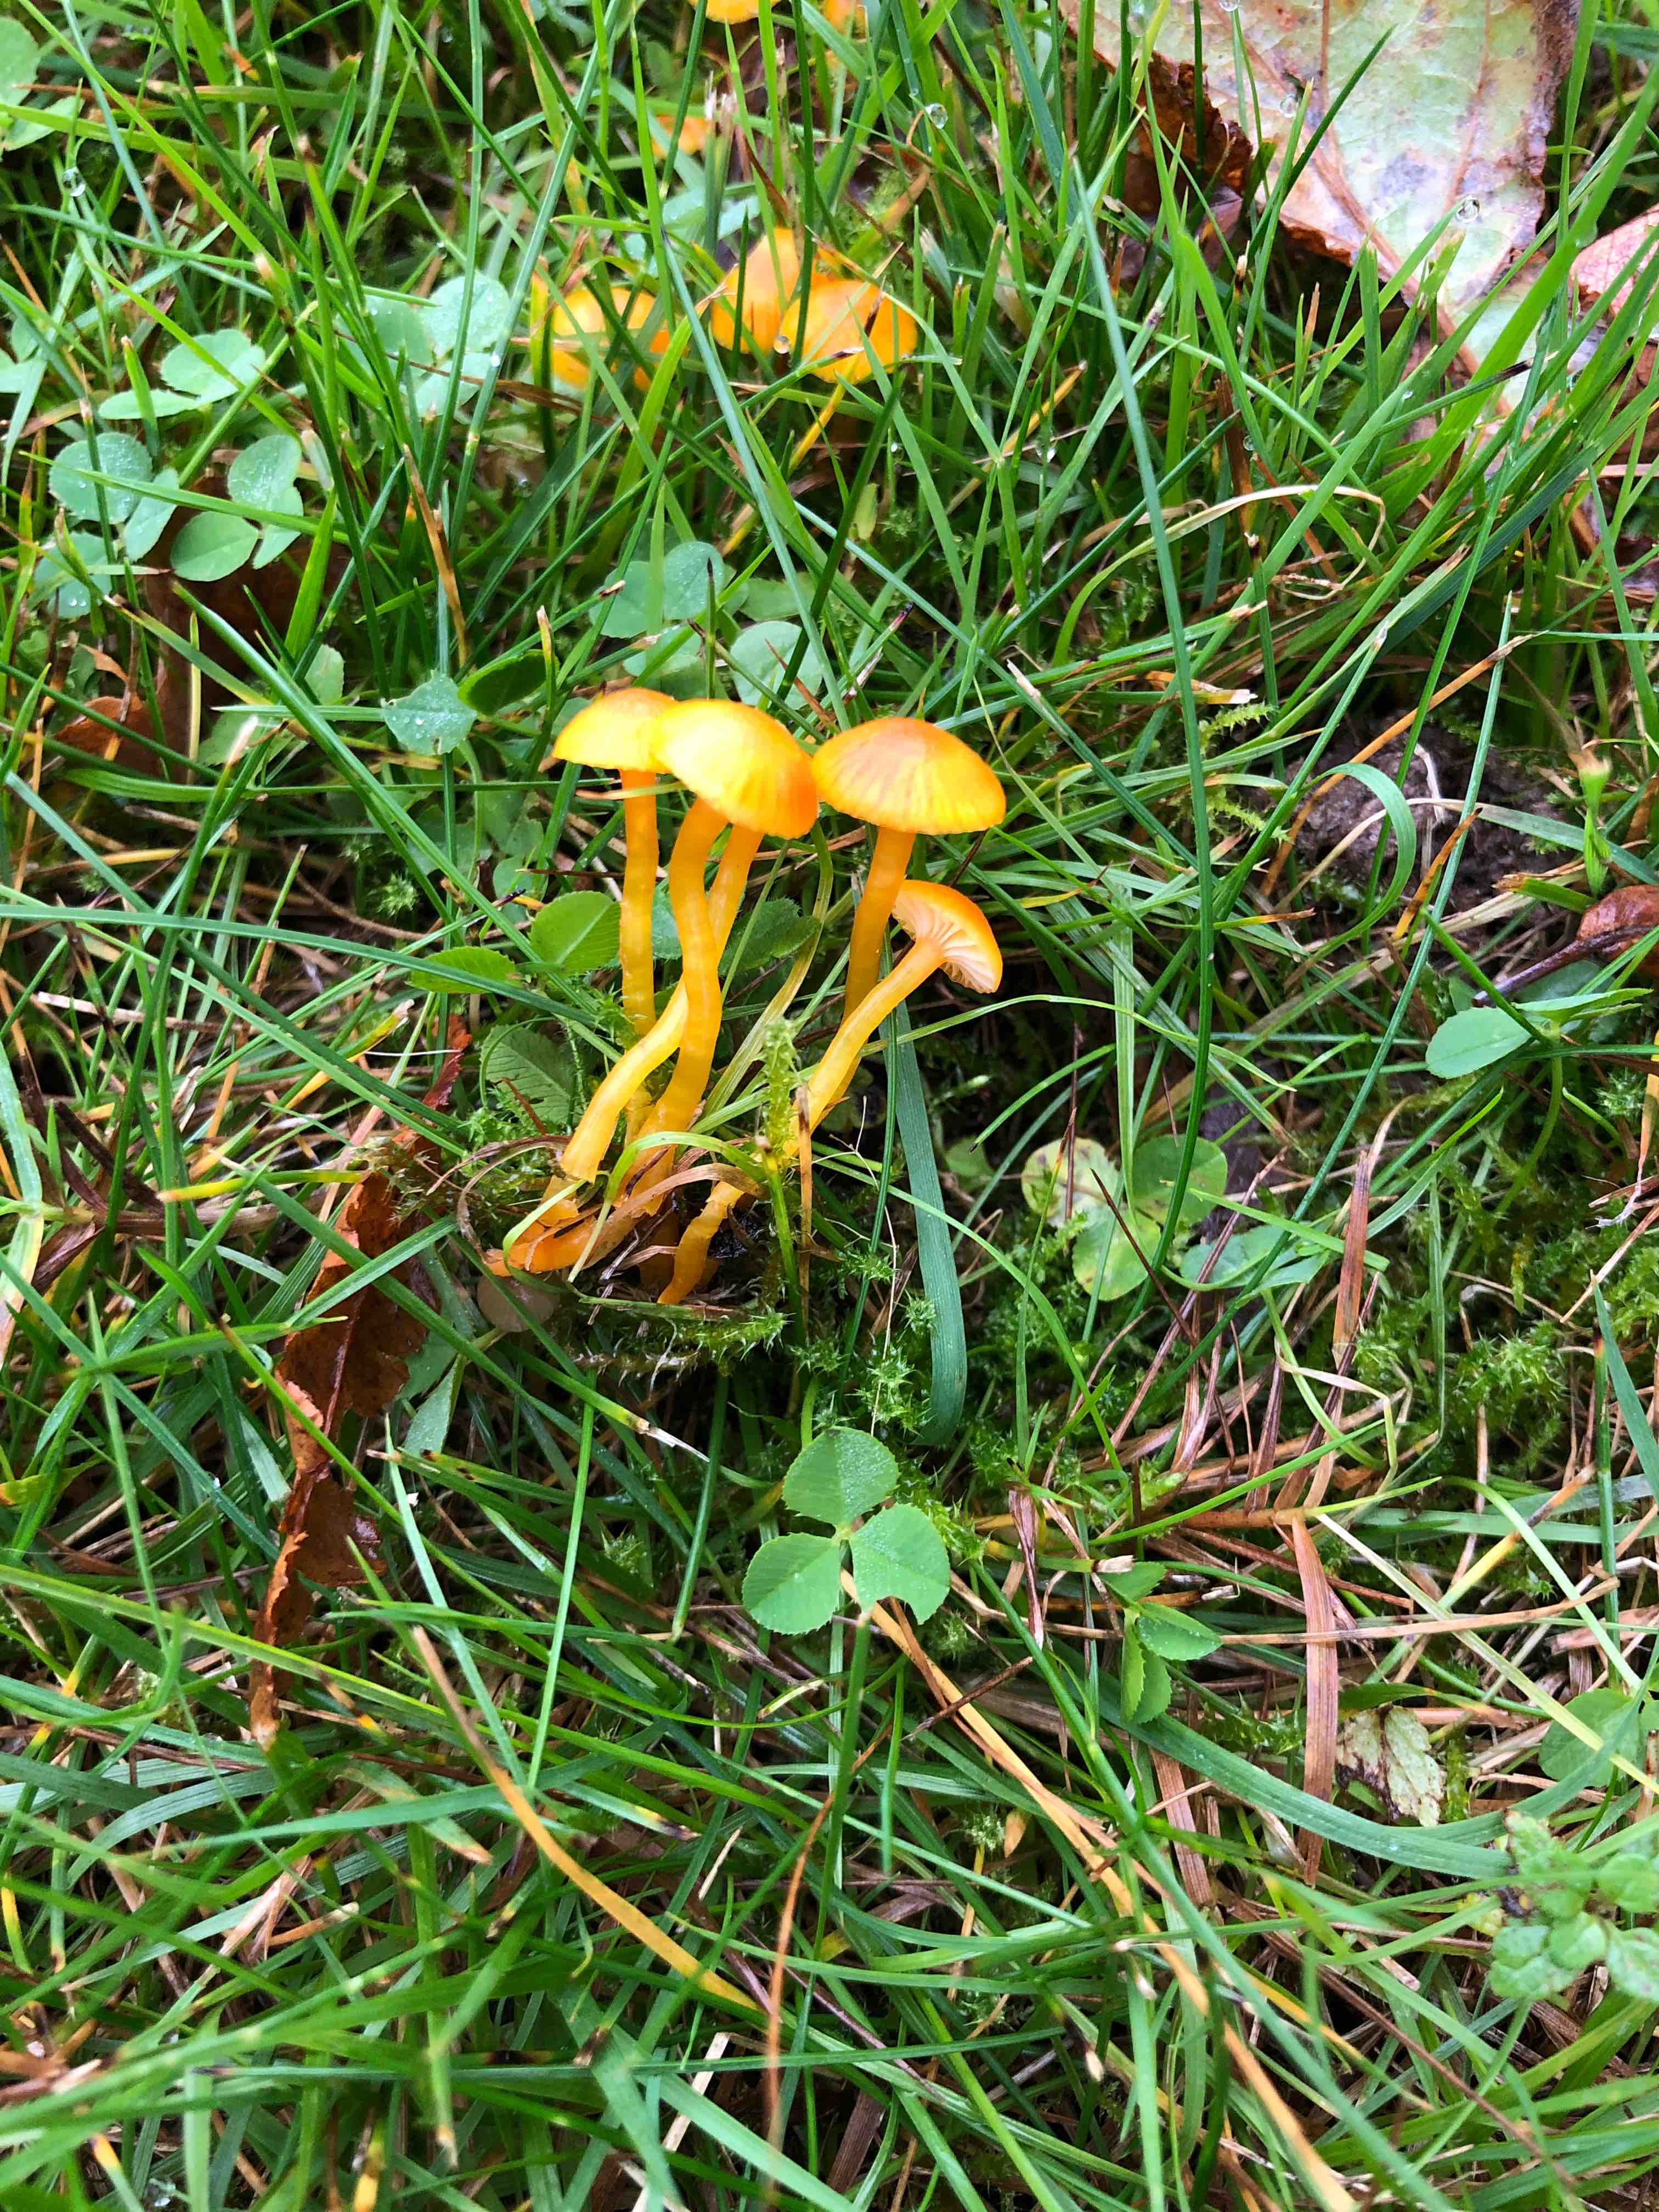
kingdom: Fungi
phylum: Basidiomycota
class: Agaricomycetes
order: Agaricales
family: Hygrophoraceae
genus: Hygrocybe
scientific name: Hygrocybe insipida
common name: liden vokshat
